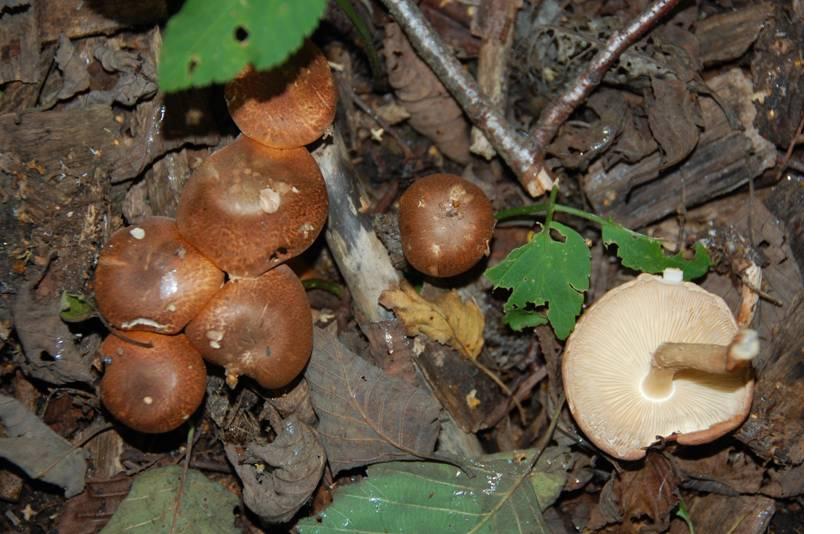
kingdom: Fungi
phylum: Basidiomycota
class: Agaricomycetes
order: Agaricales
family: Agaricaceae
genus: Leucocoprinus
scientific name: Leucocoprinus straminellus
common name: rustbrun parasolhat
